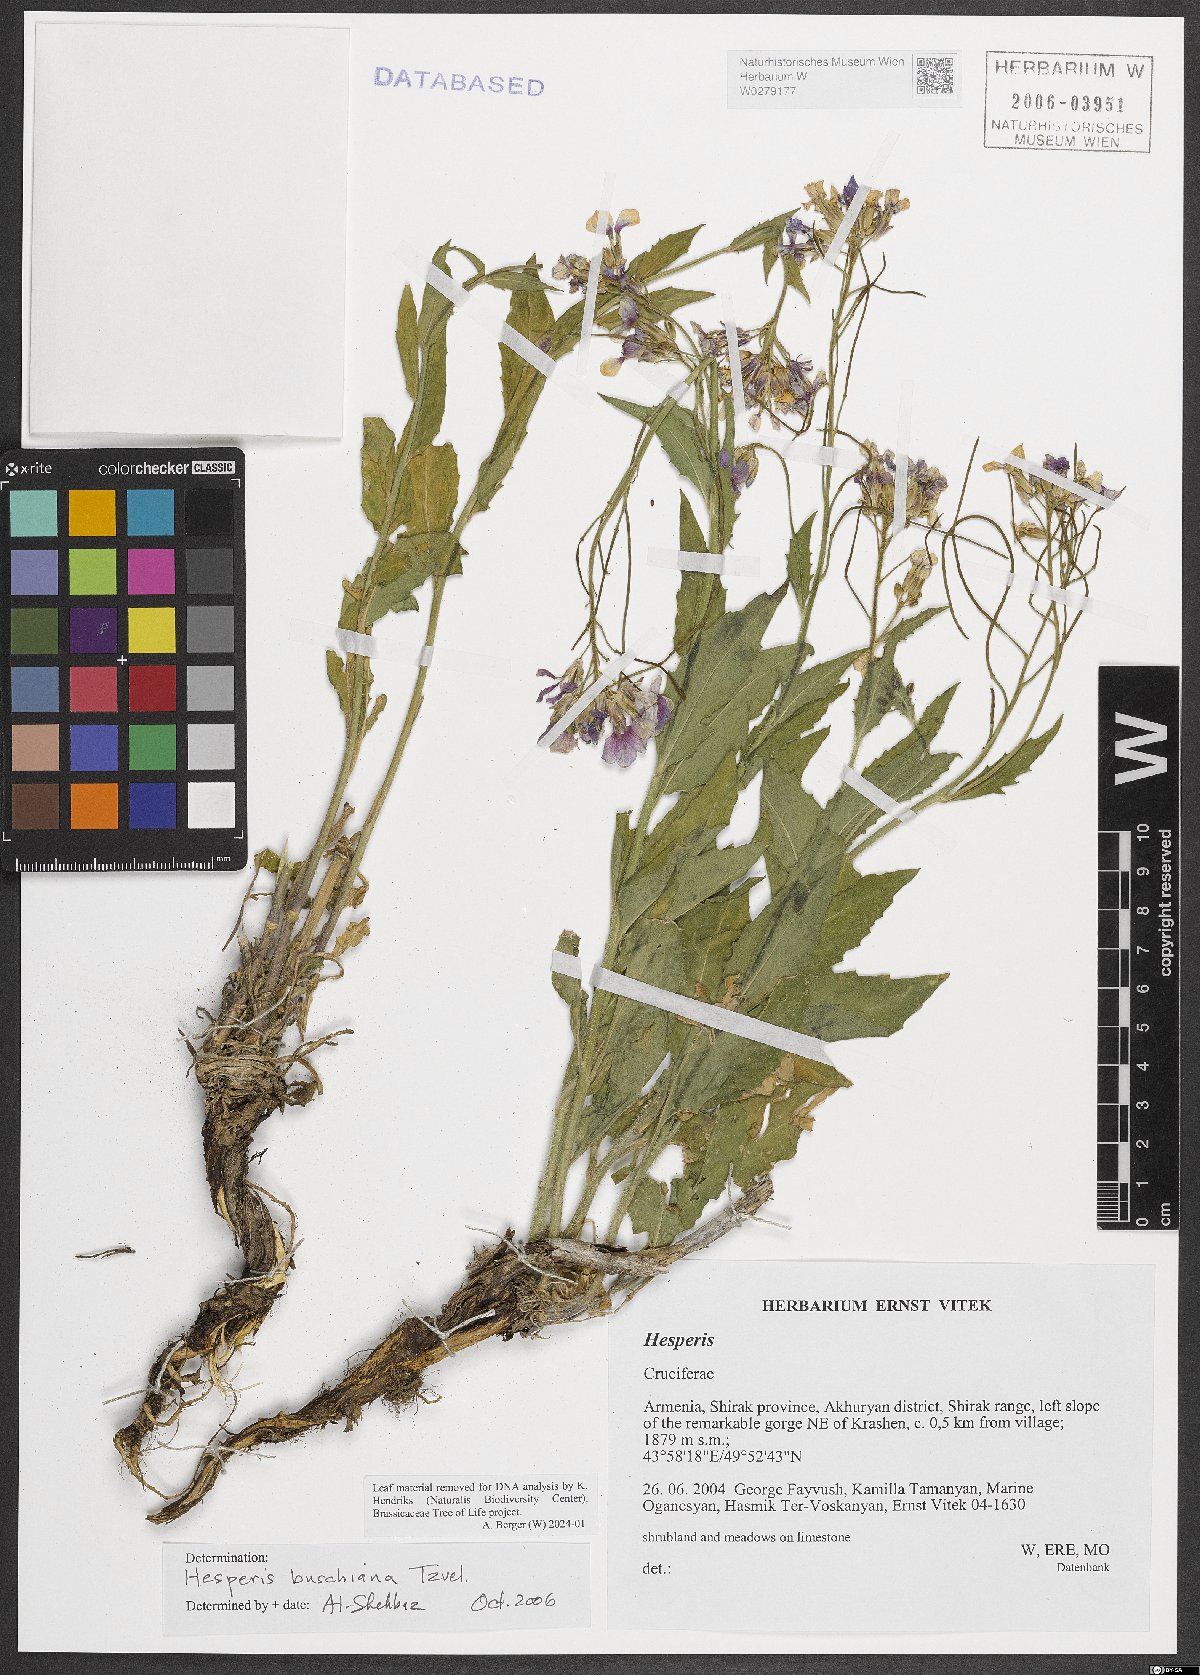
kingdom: Plantae
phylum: Tracheophyta
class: Magnoliopsida
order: Brassicales
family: Brassicaceae
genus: Hesperis
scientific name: Hesperis buschiana
